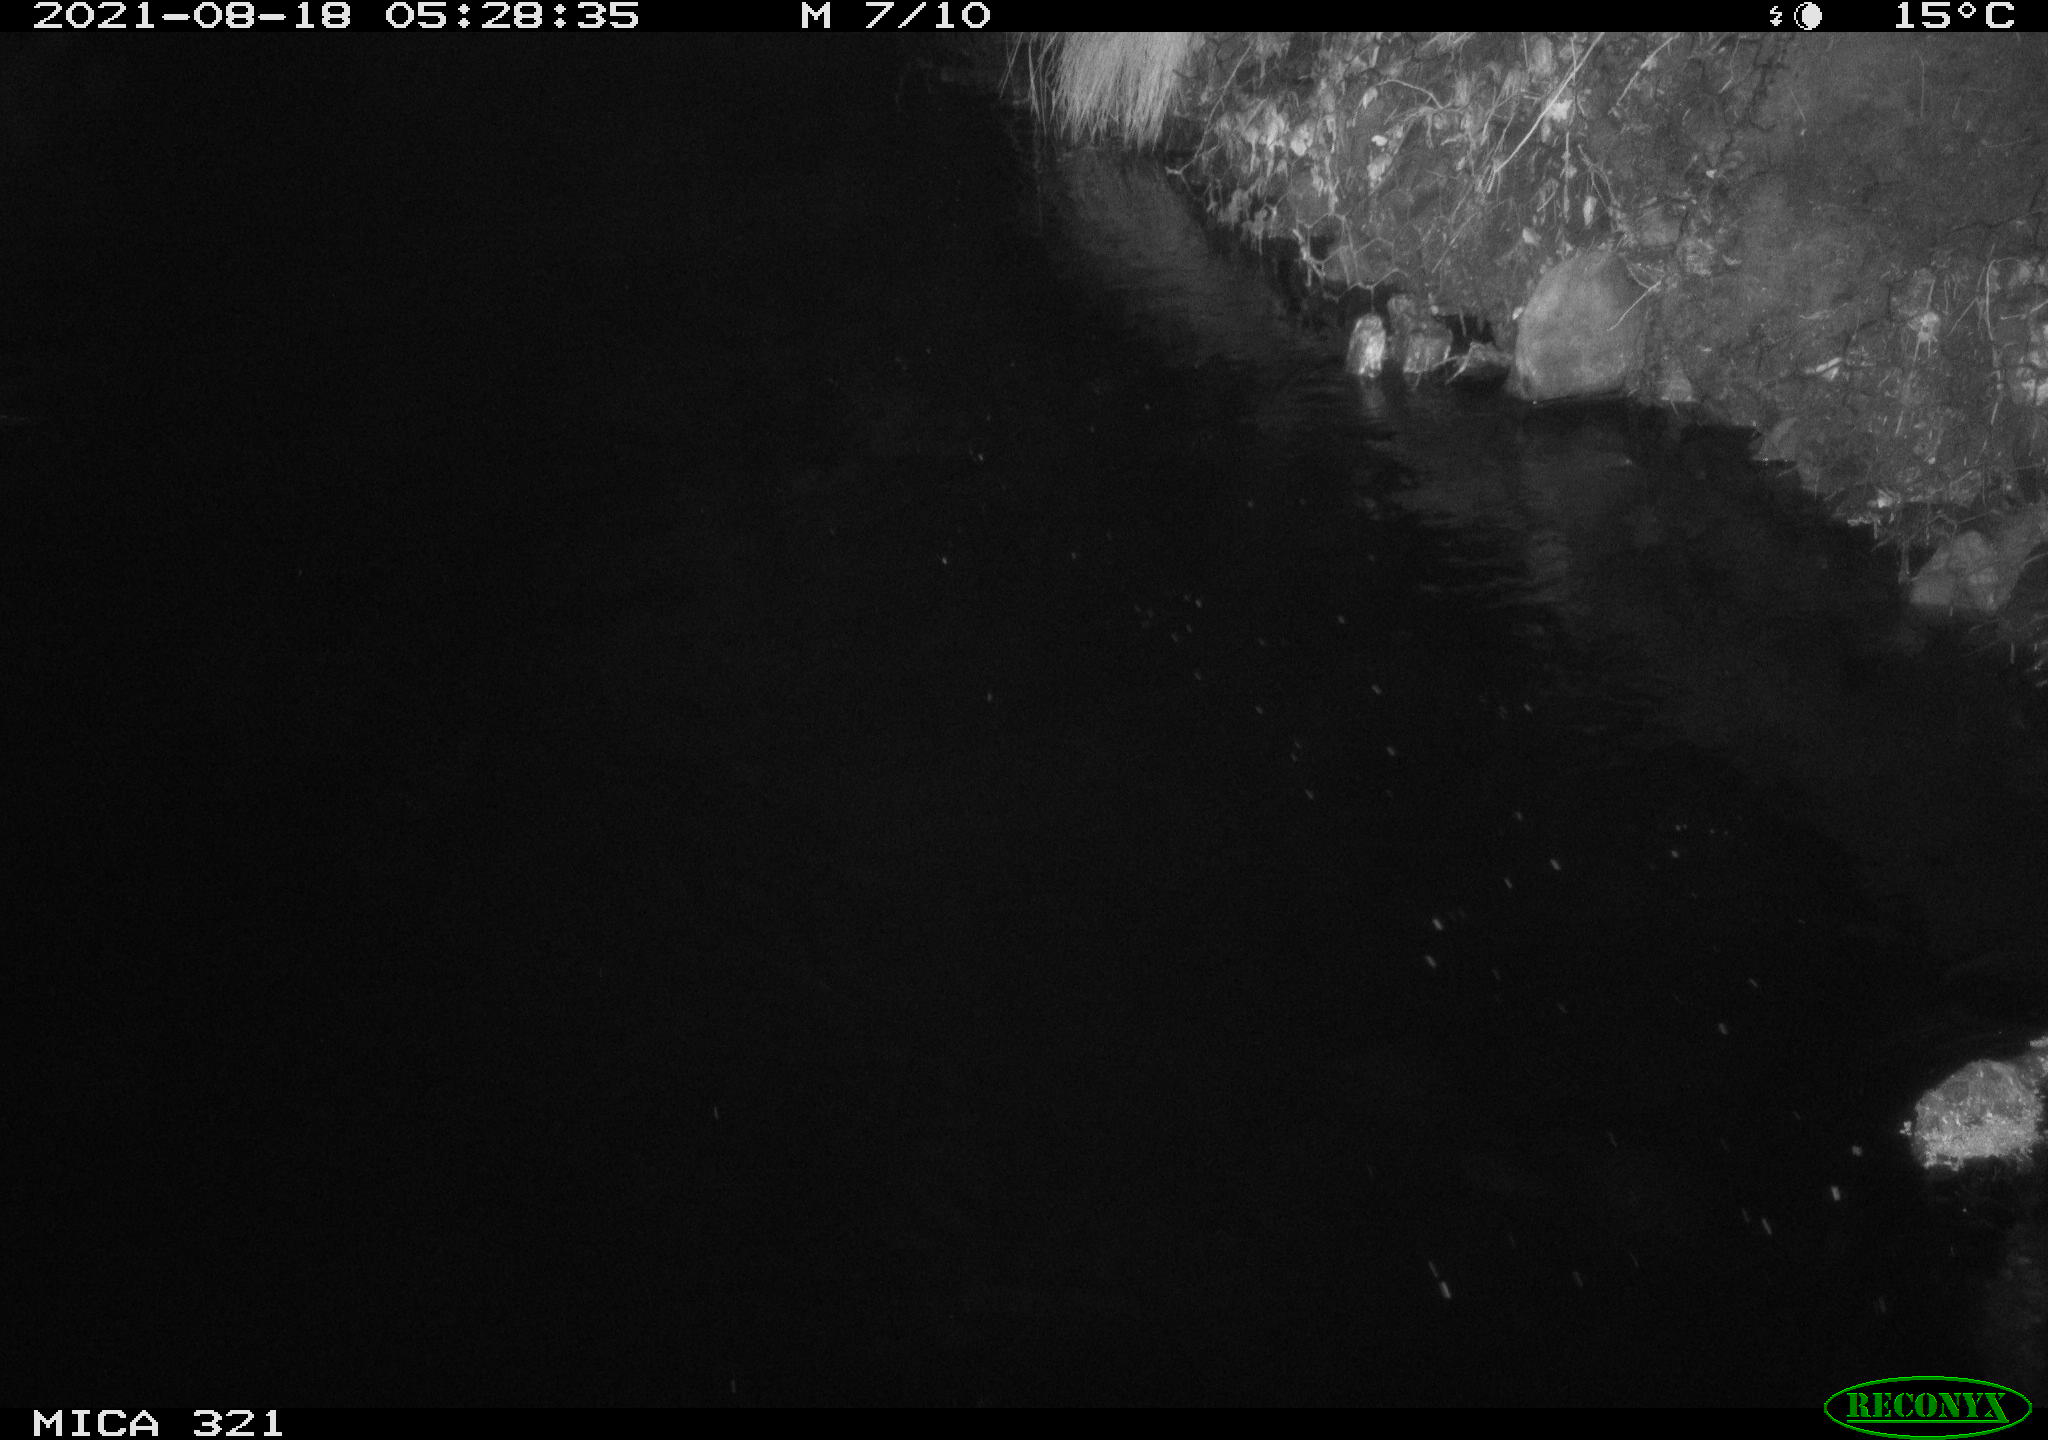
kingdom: Animalia
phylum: Chordata
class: Aves
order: Anseriformes
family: Anatidae
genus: Anas
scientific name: Anas platyrhynchos
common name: Mallard
